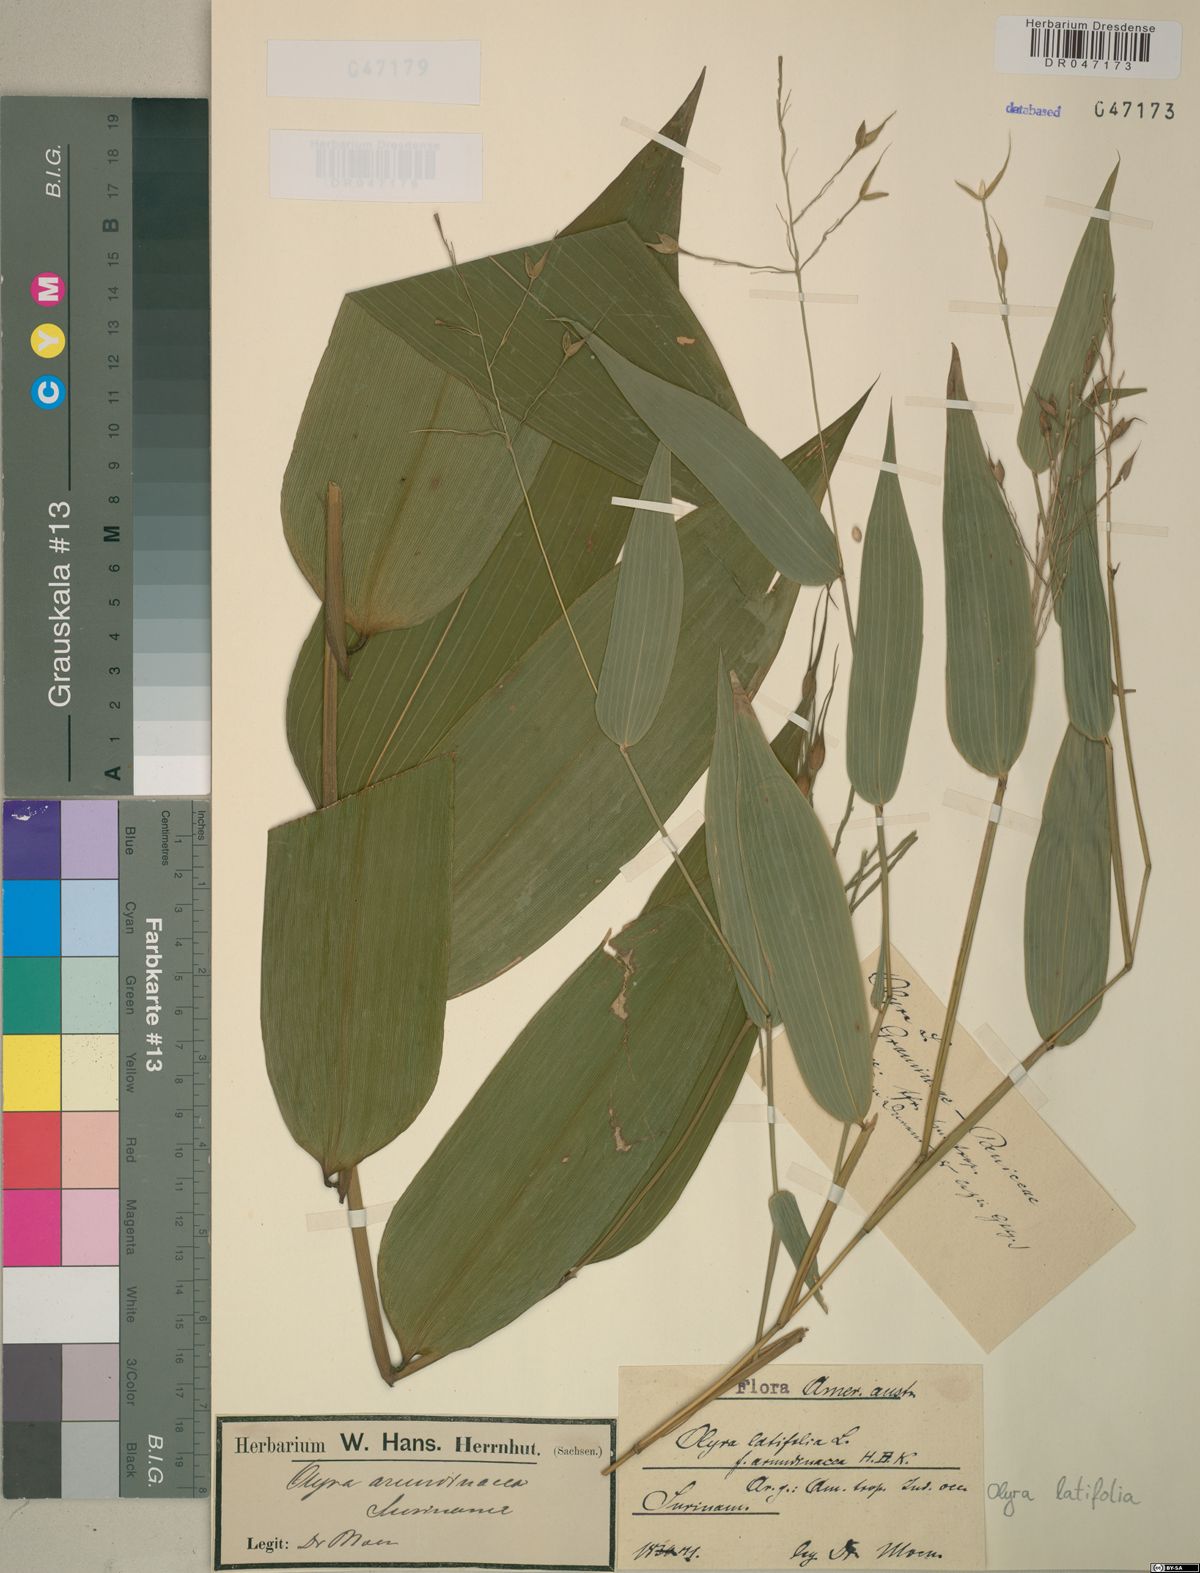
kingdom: Plantae
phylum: Tracheophyta
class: Liliopsida
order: Poales
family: Poaceae
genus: Olyra
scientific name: Olyra latifolia
